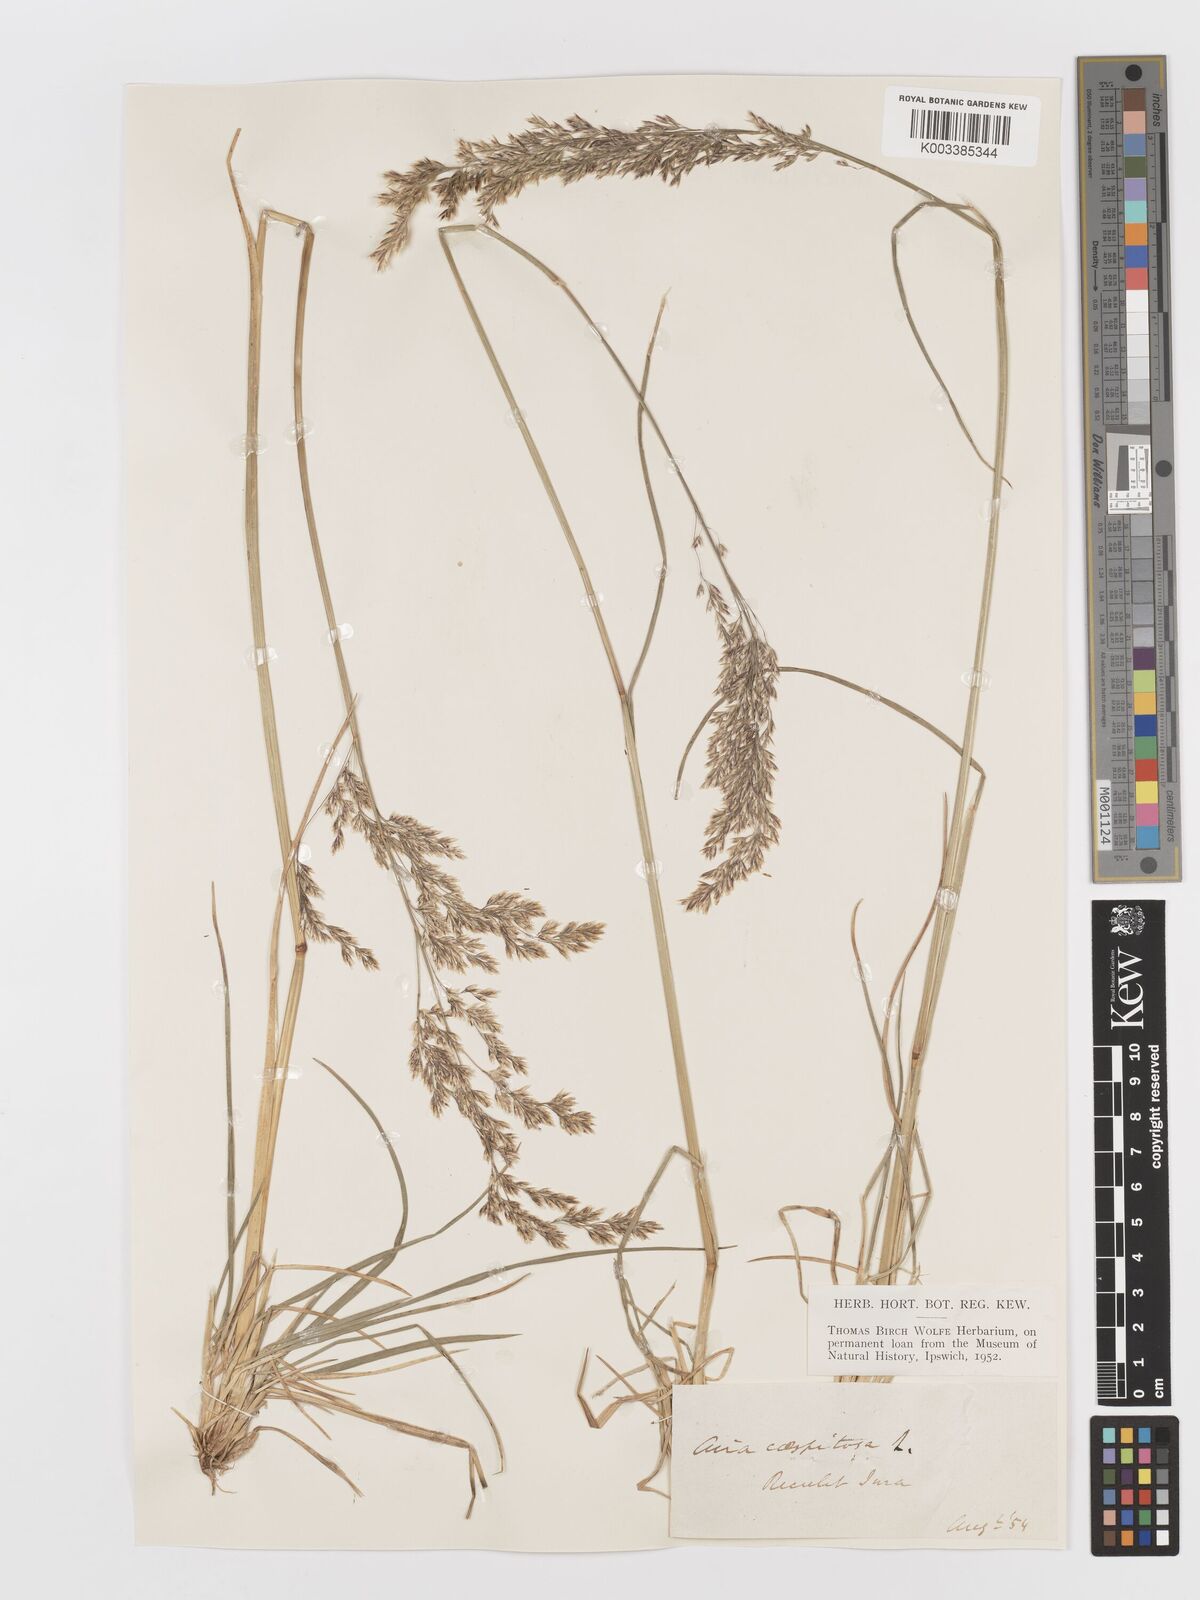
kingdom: Plantae
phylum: Tracheophyta
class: Liliopsida
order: Poales
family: Poaceae
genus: Deschampsia
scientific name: Deschampsia cespitosa
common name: Tufted hair-grass
